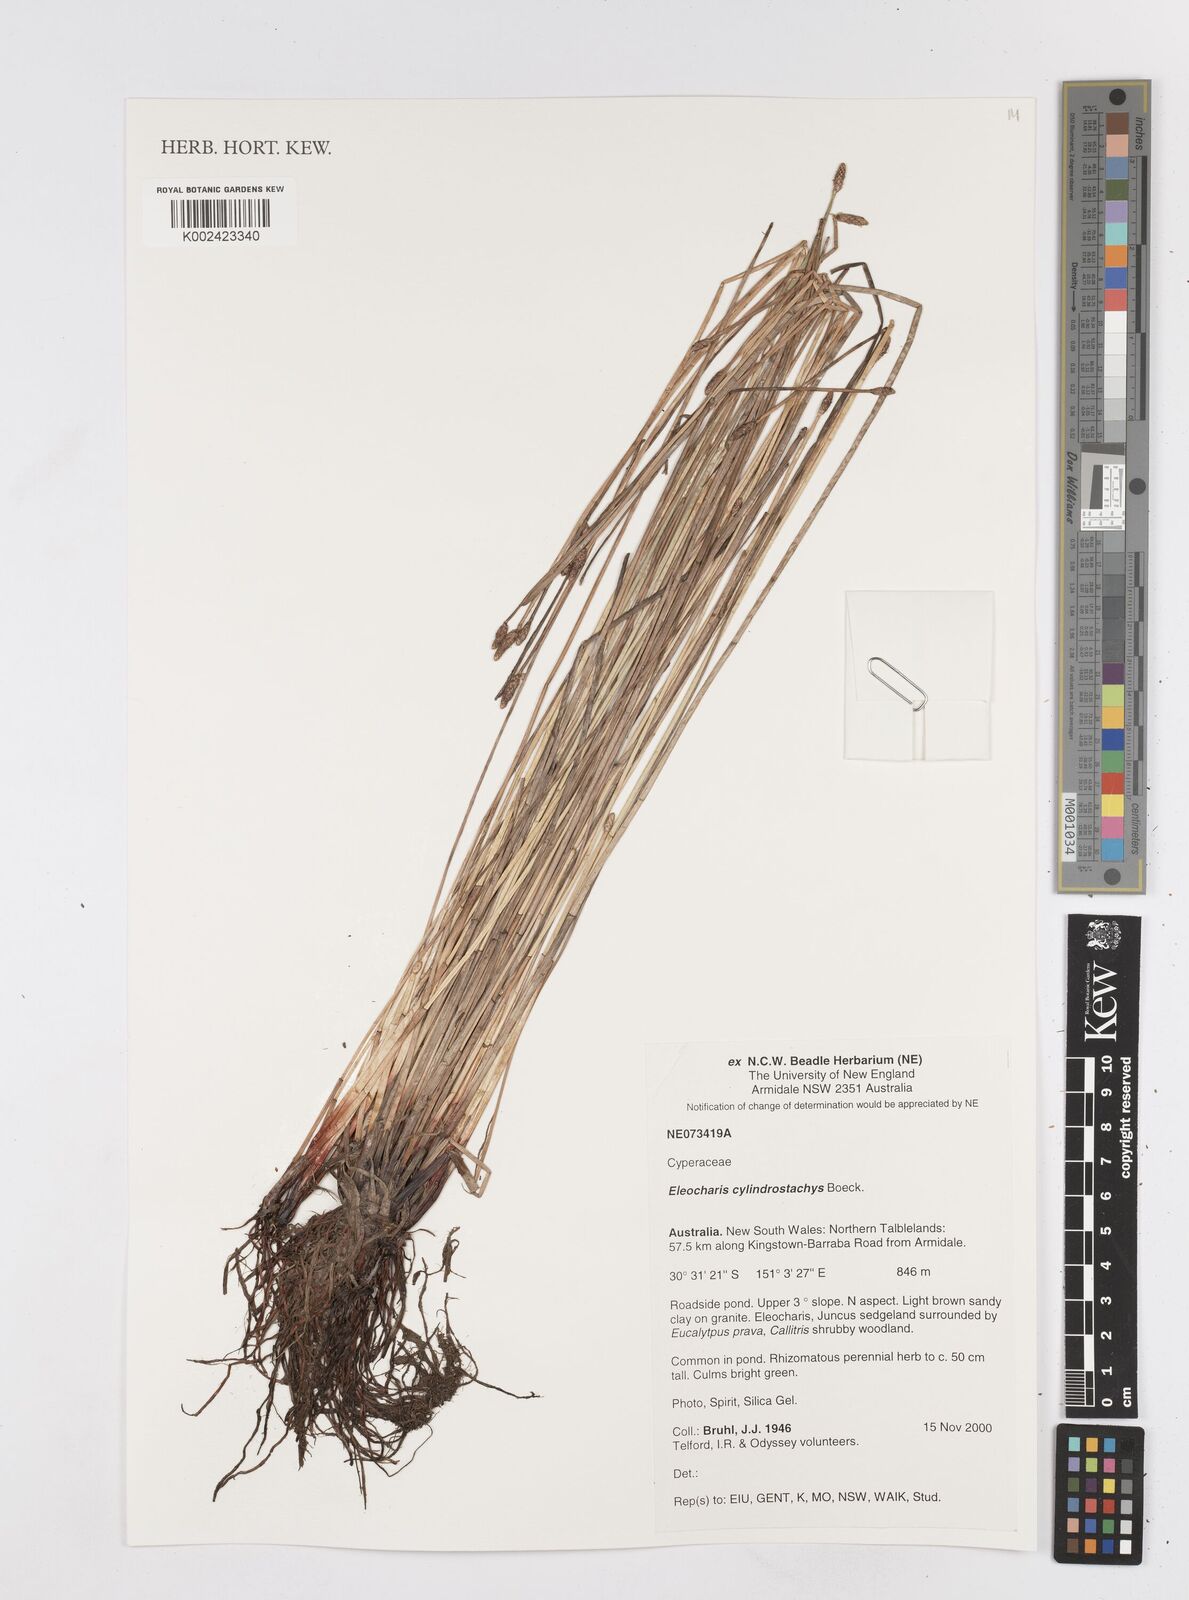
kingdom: Plantae
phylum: Tracheophyta
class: Liliopsida
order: Poales
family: Cyperaceae
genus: Eleocharis
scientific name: Eleocharis cylindrostachys
